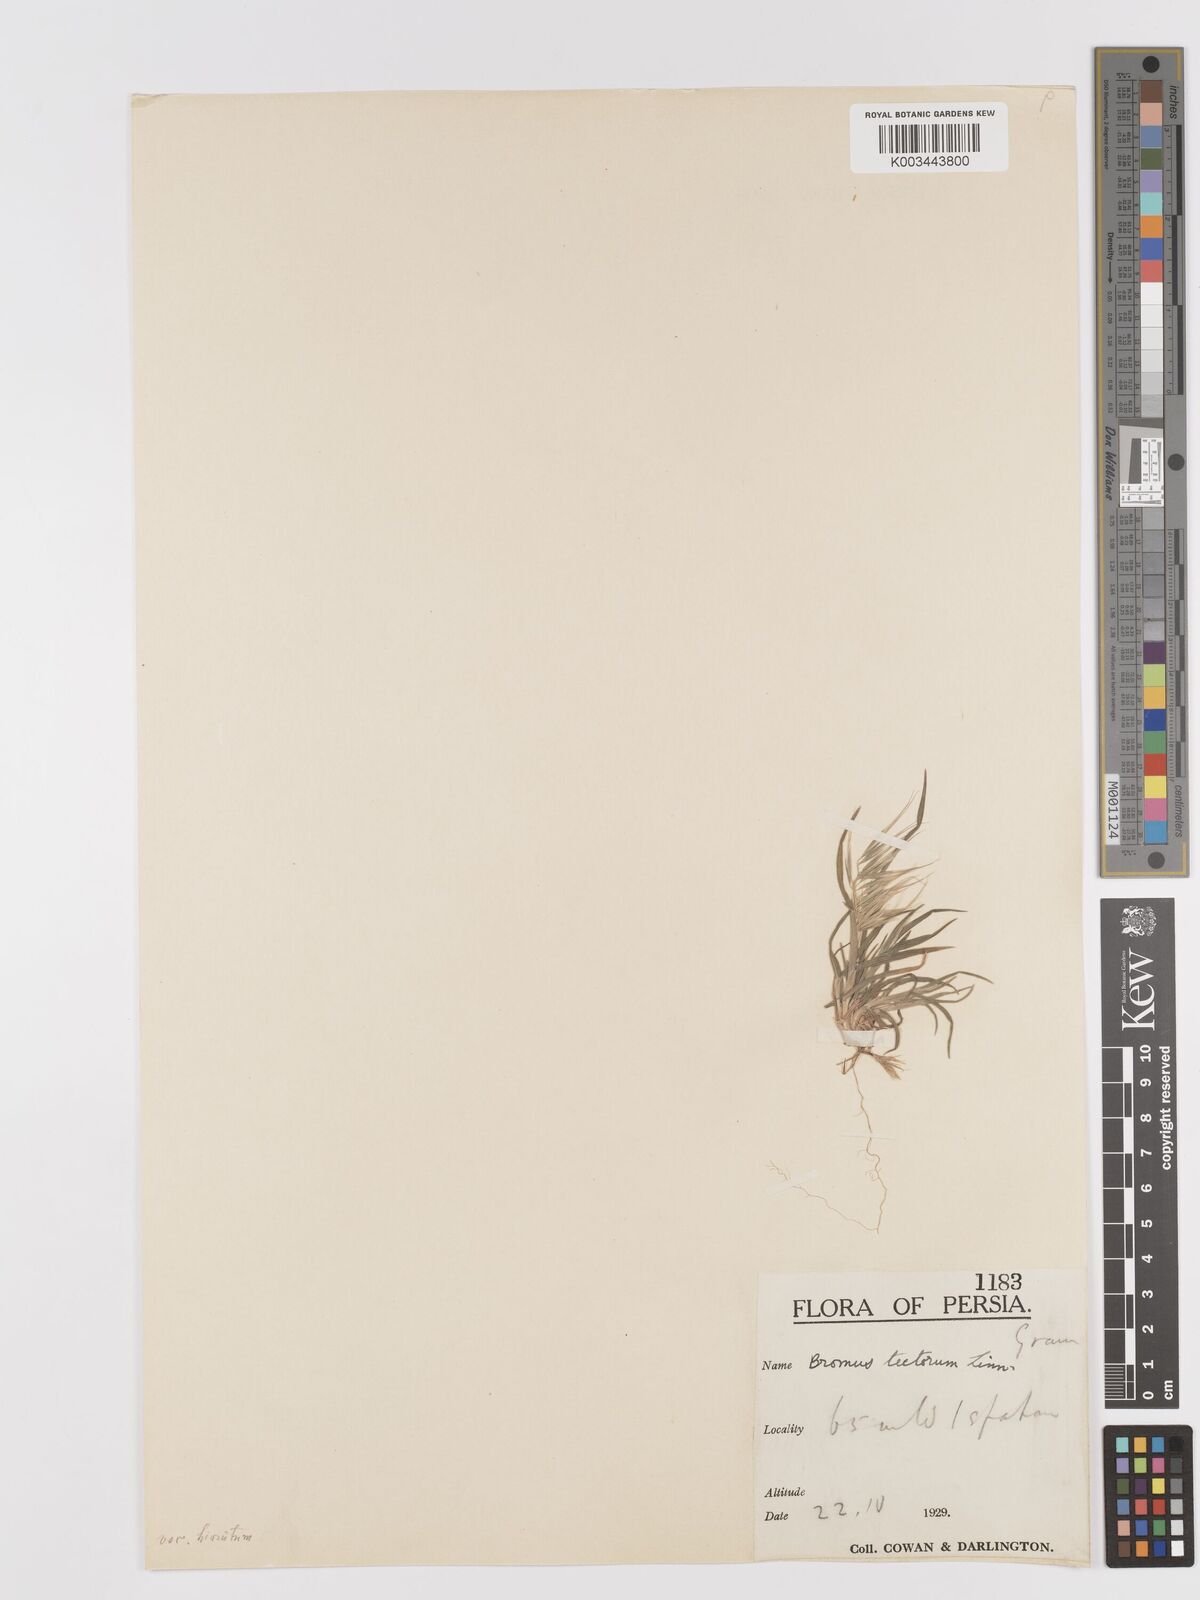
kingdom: Plantae
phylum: Tracheophyta
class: Liliopsida
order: Poales
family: Poaceae
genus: Bromus
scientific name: Bromus tectorum
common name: Cheatgrass
